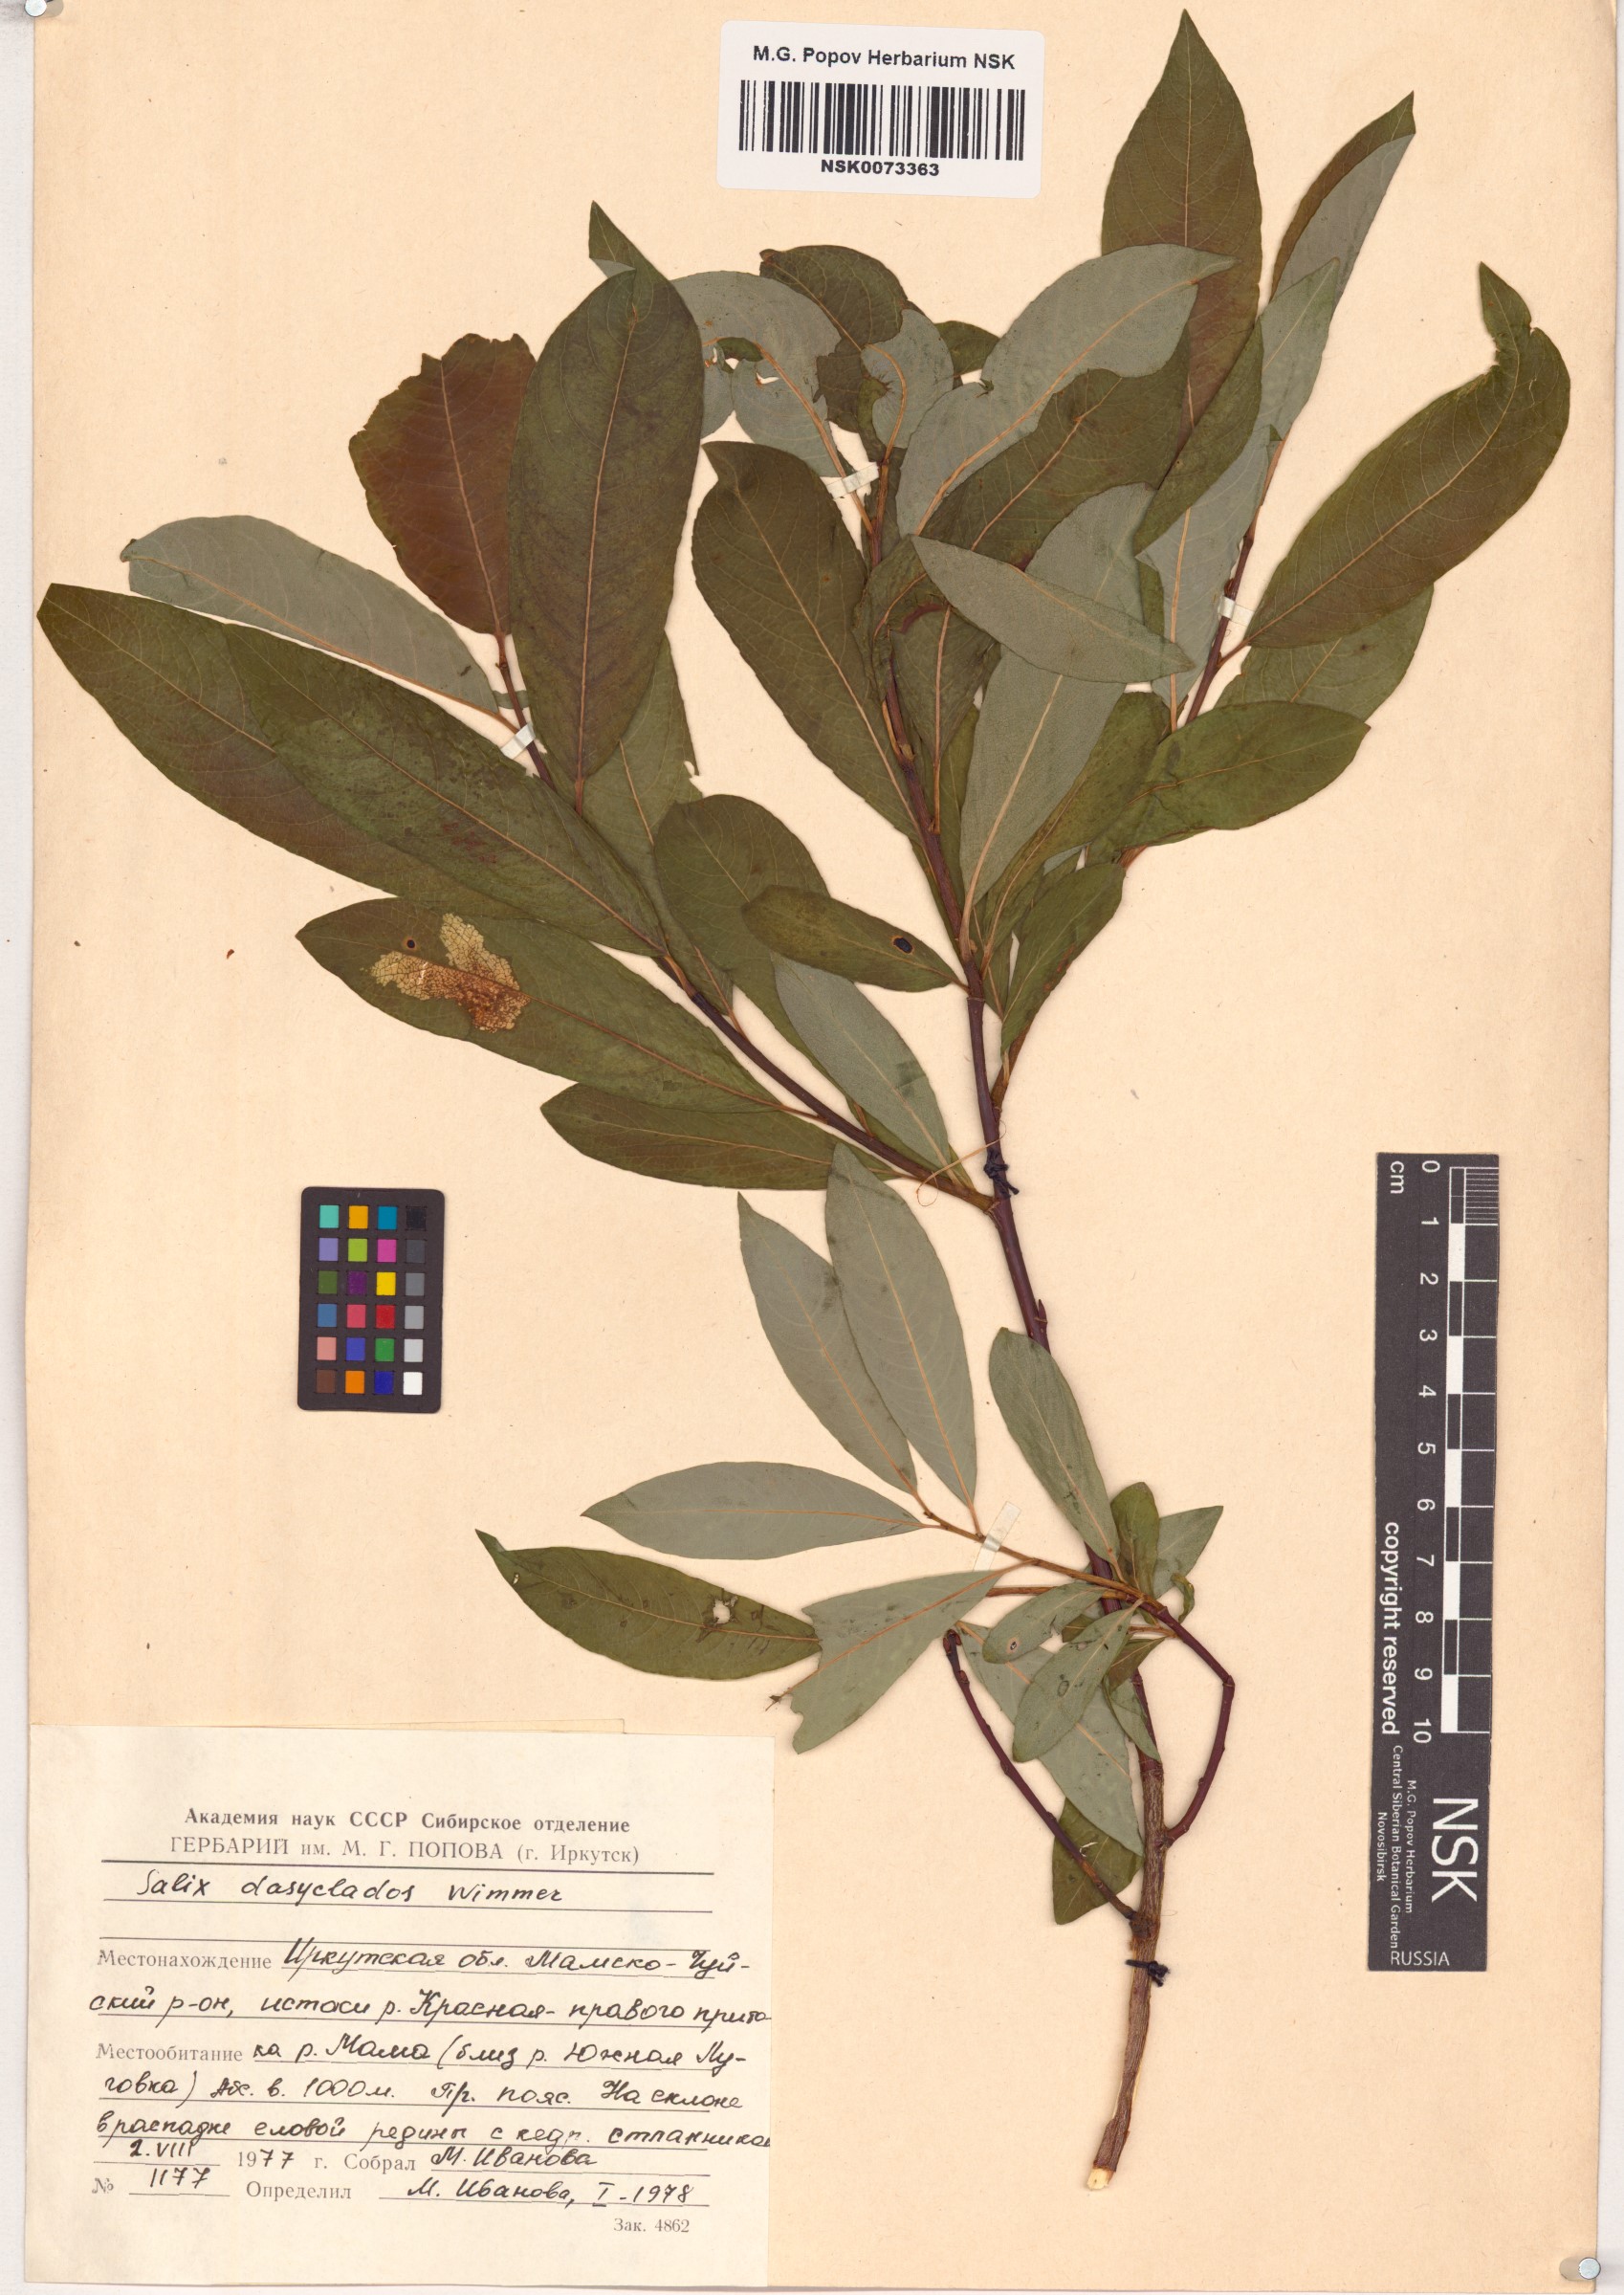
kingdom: Plantae
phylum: Tracheophyta
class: Magnoliopsida
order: Malpighiales
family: Salicaceae
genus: Salix
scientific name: Salix gmelinii
